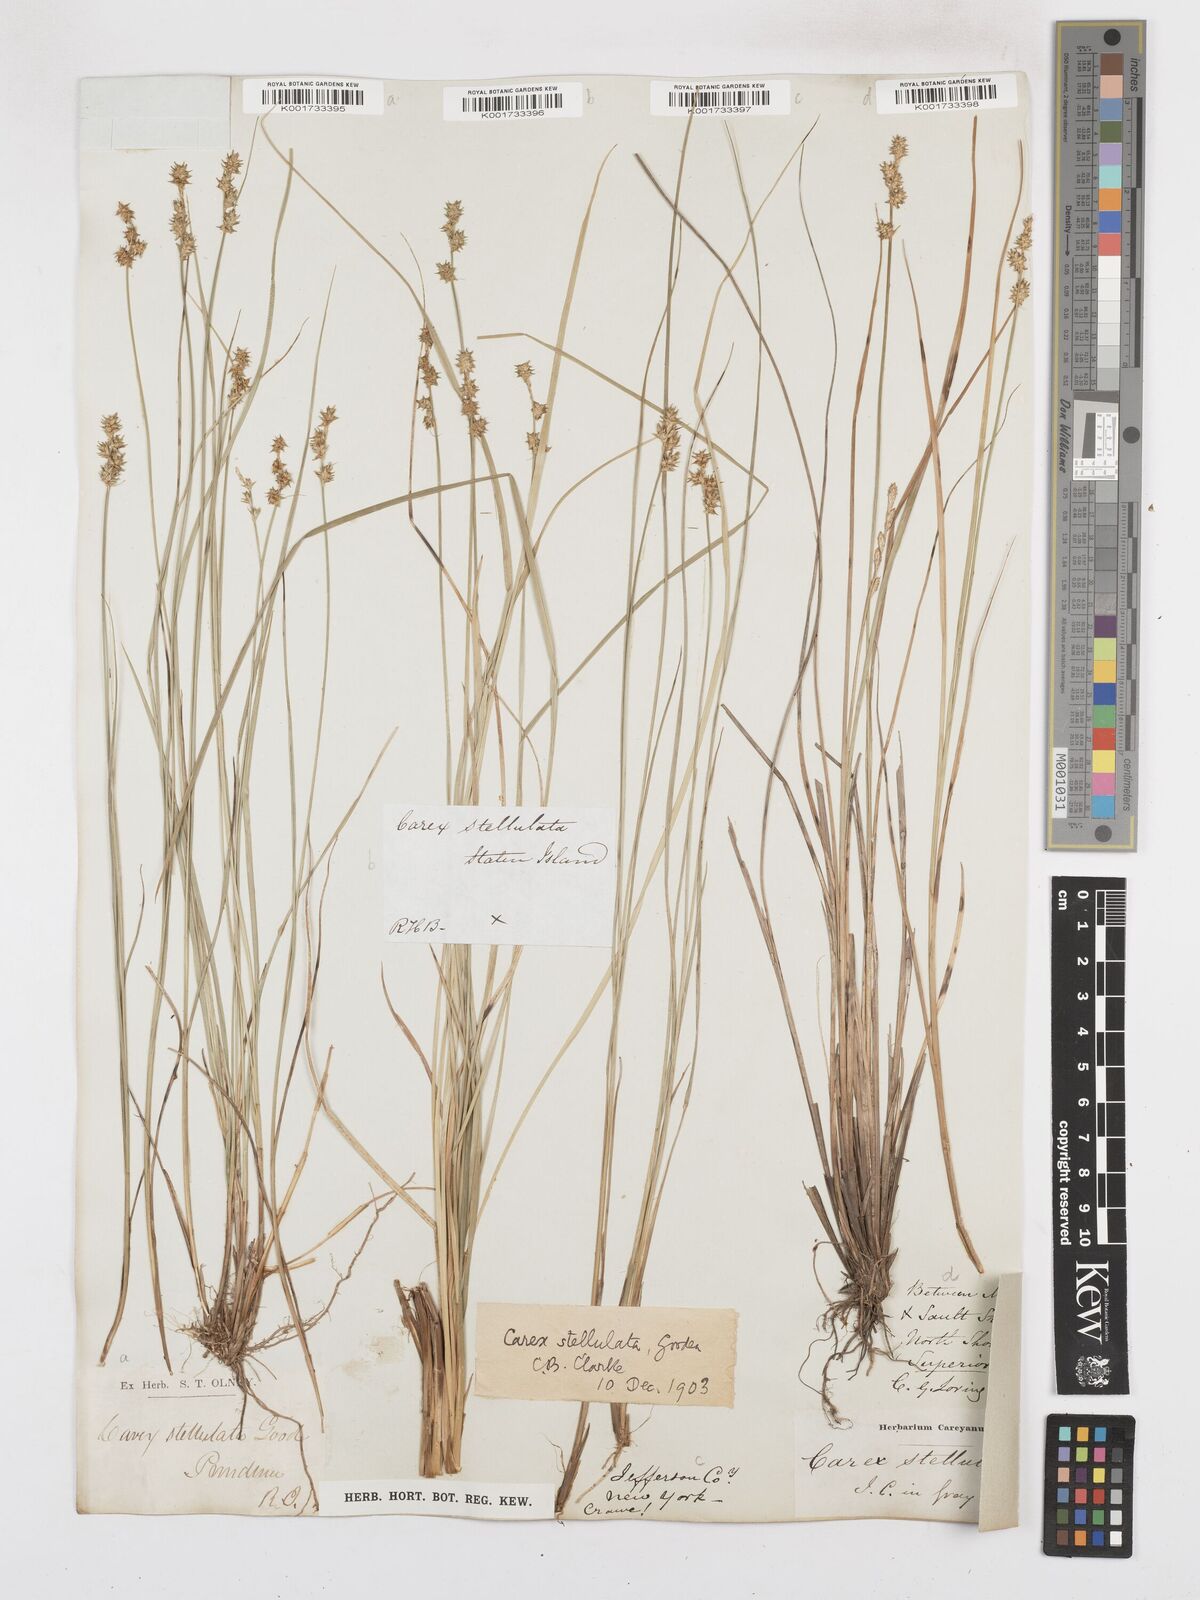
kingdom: Plantae
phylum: Tracheophyta
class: Liliopsida
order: Poales
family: Cyperaceae
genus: Carex
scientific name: Carex echinata
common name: Star sedge
